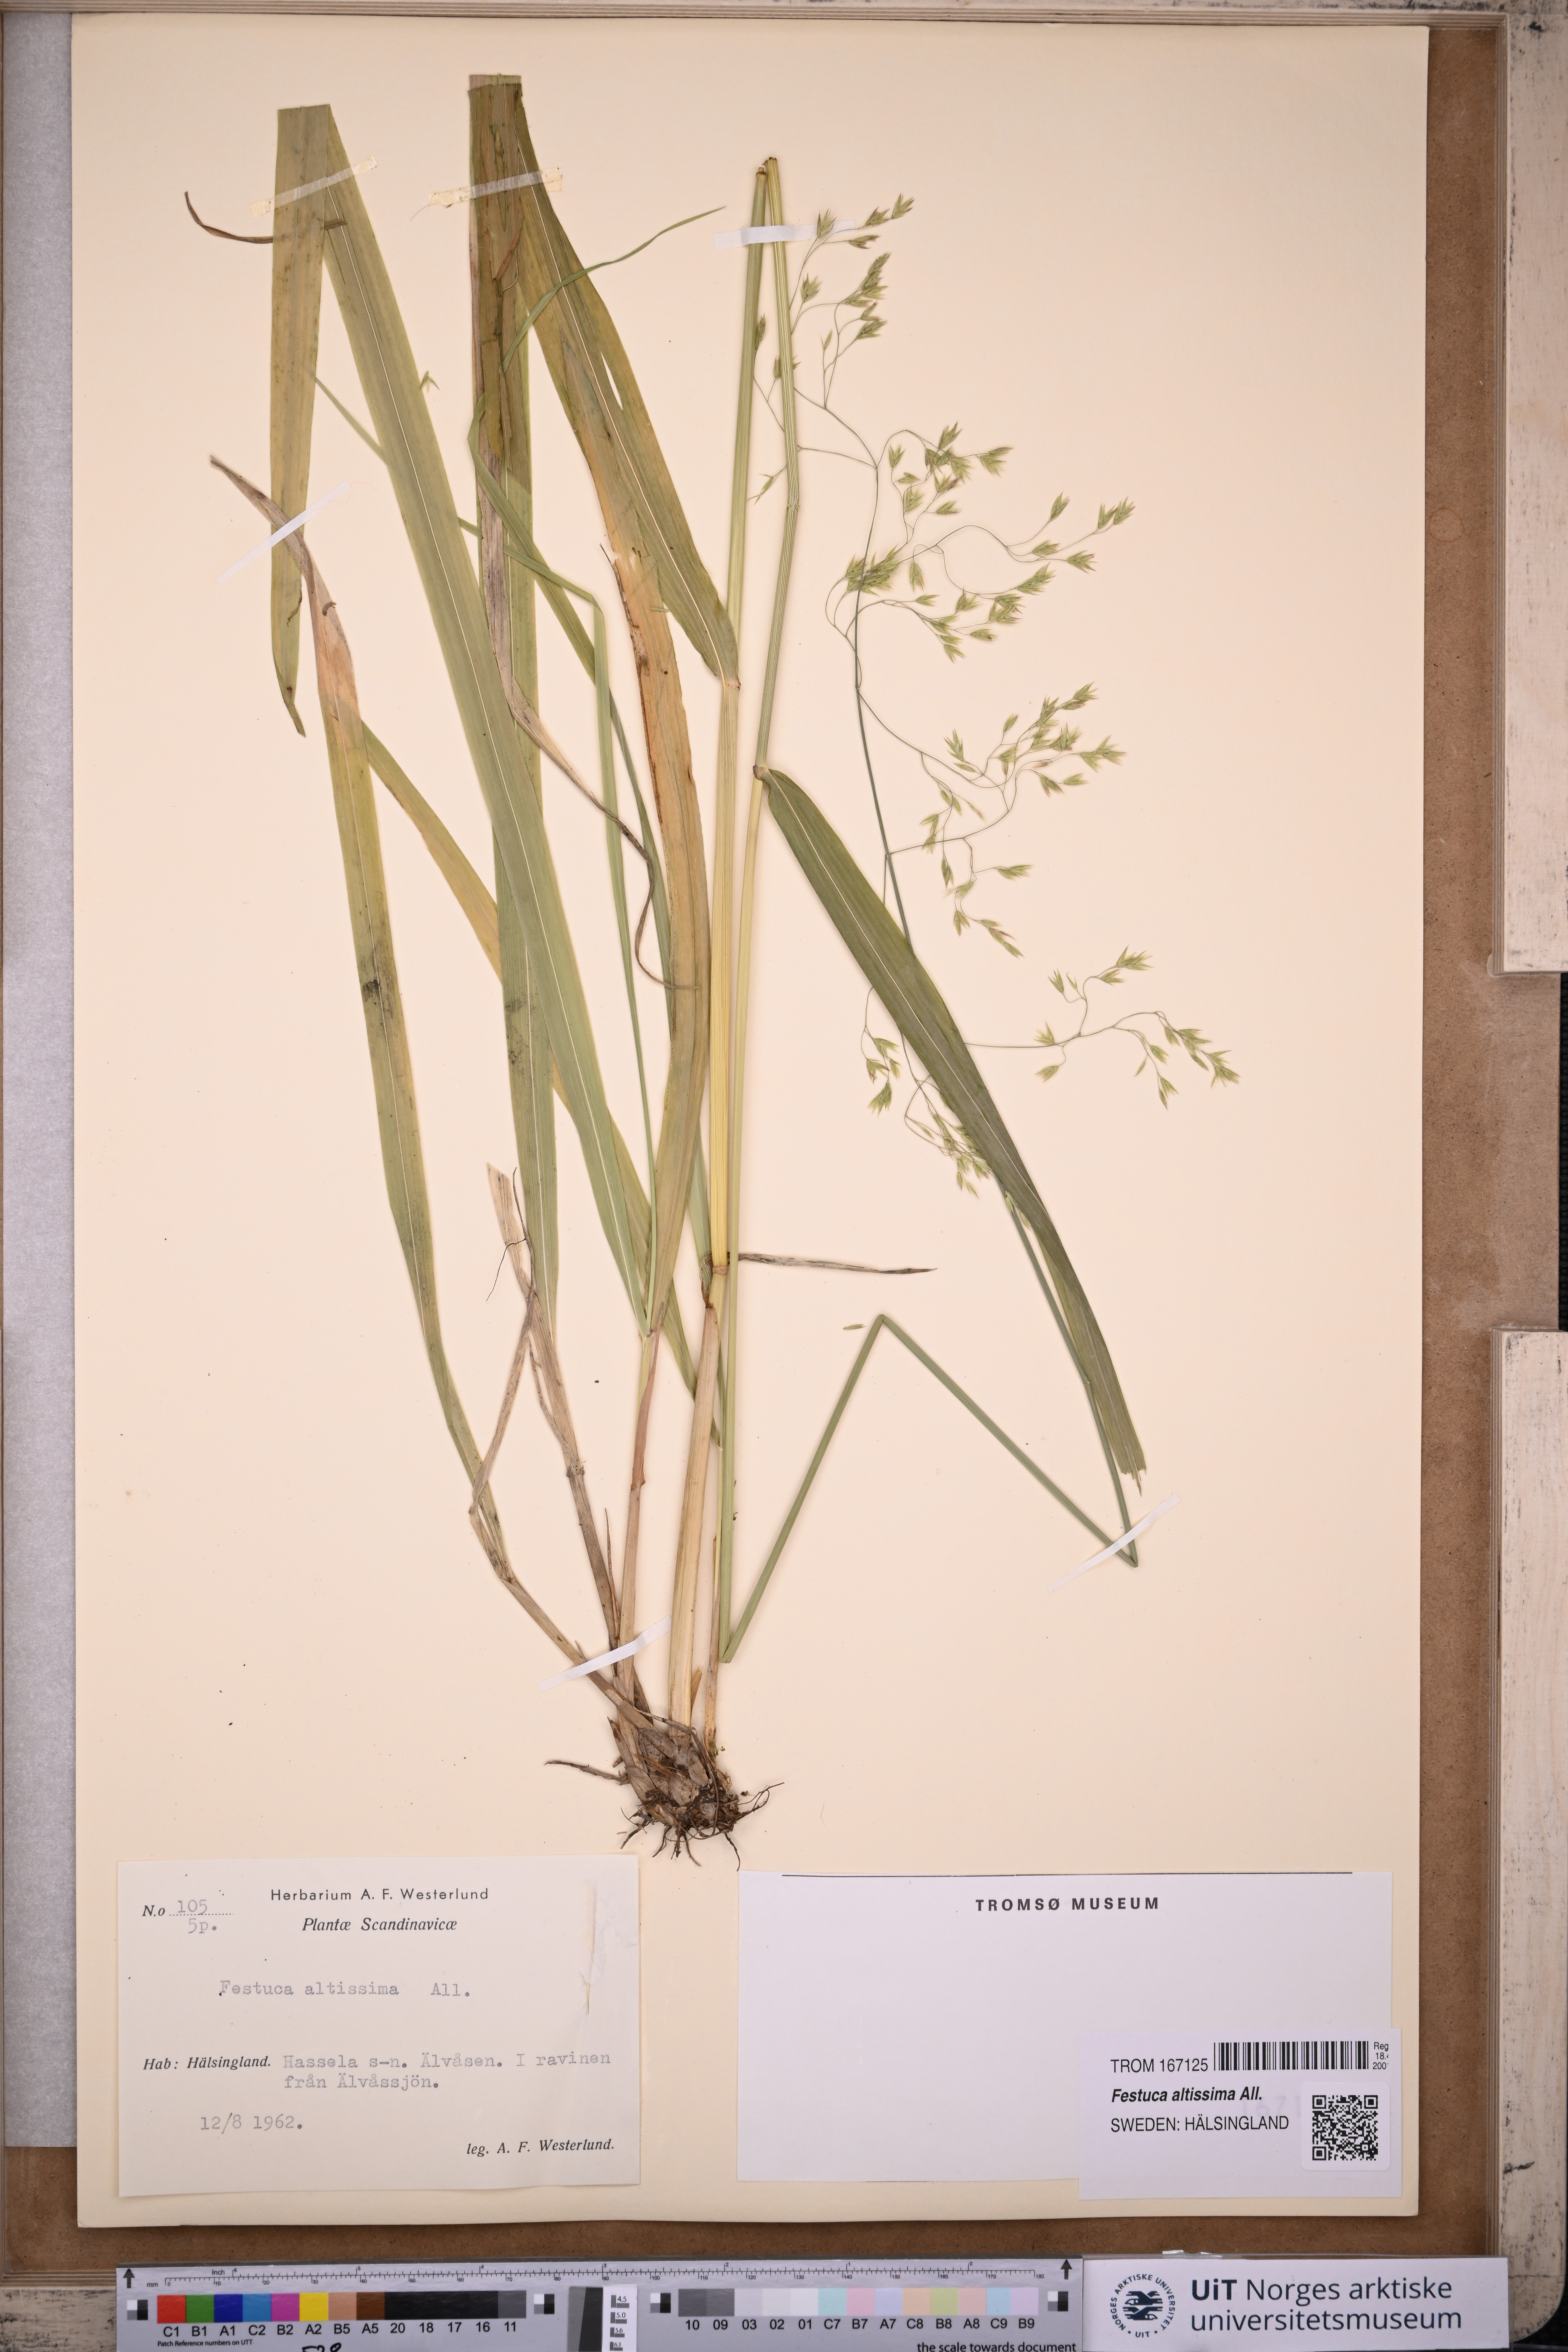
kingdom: Plantae
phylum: Tracheophyta
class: Liliopsida
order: Poales
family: Poaceae
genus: Festuca
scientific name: Festuca altissima
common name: Wood fescue
